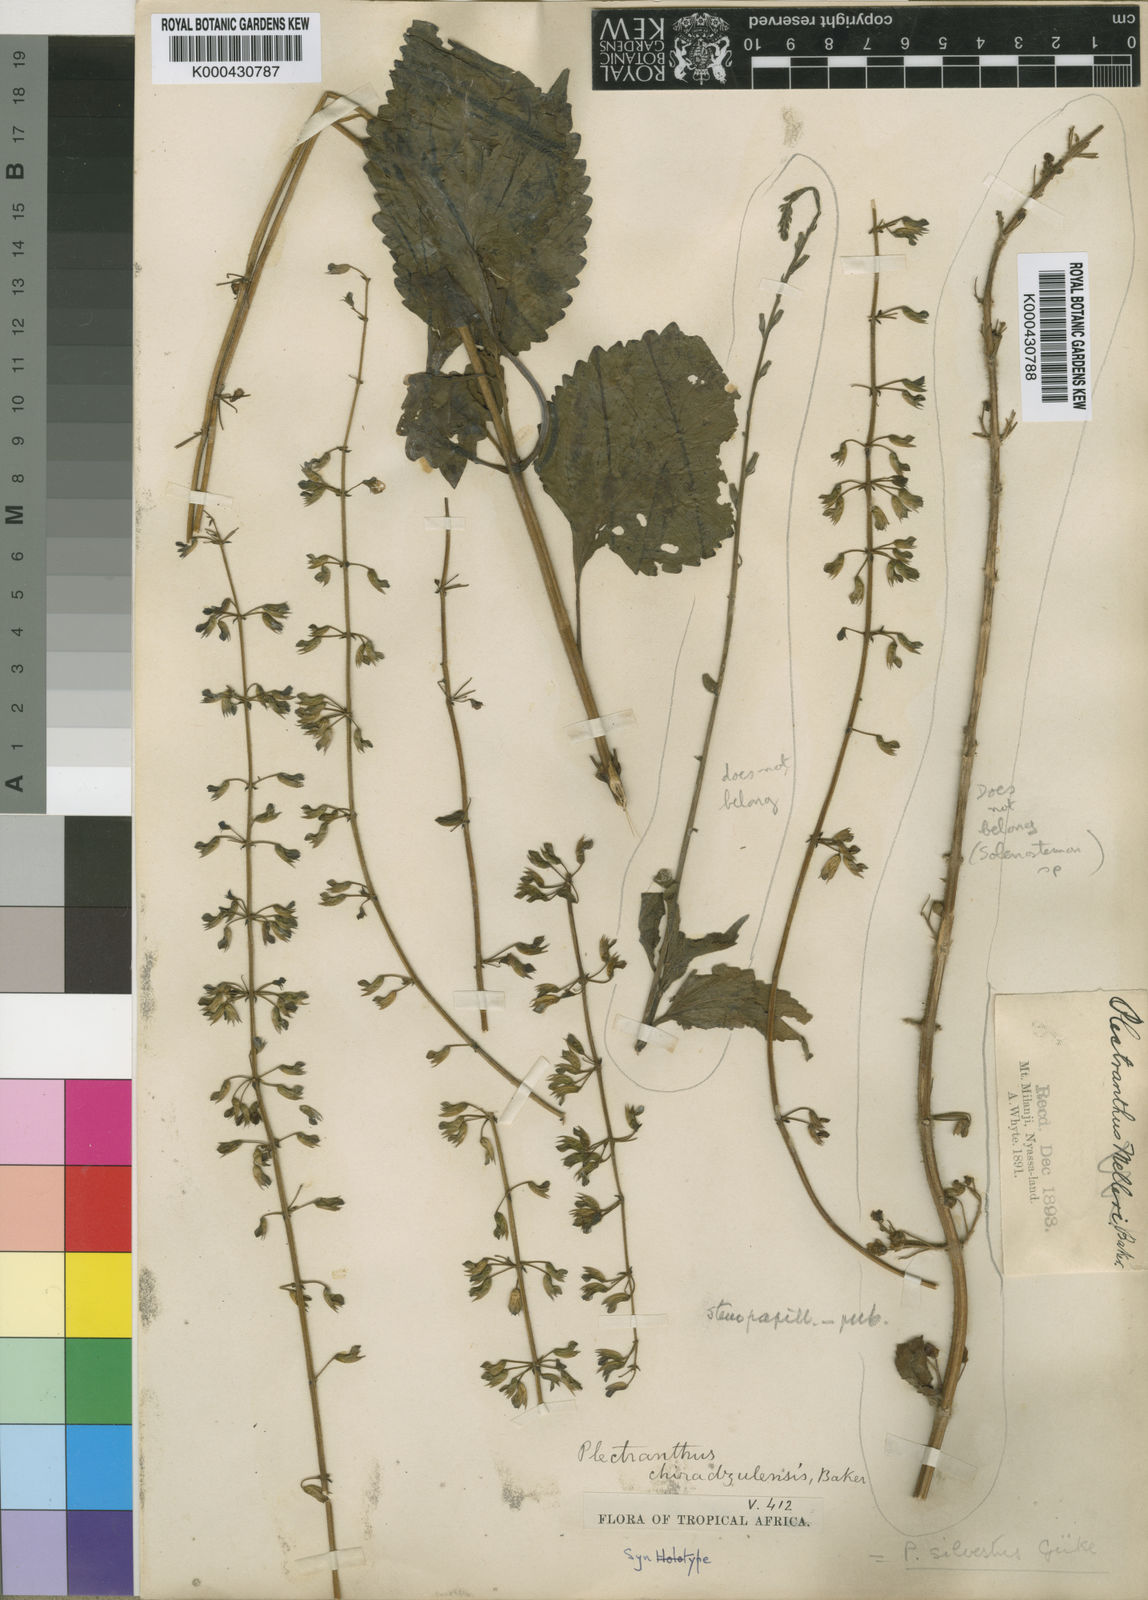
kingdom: Plantae
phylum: Tracheophyta
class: Magnoliopsida
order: Lamiales
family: Lamiaceae
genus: Plectranthus
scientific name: Plectranthus
